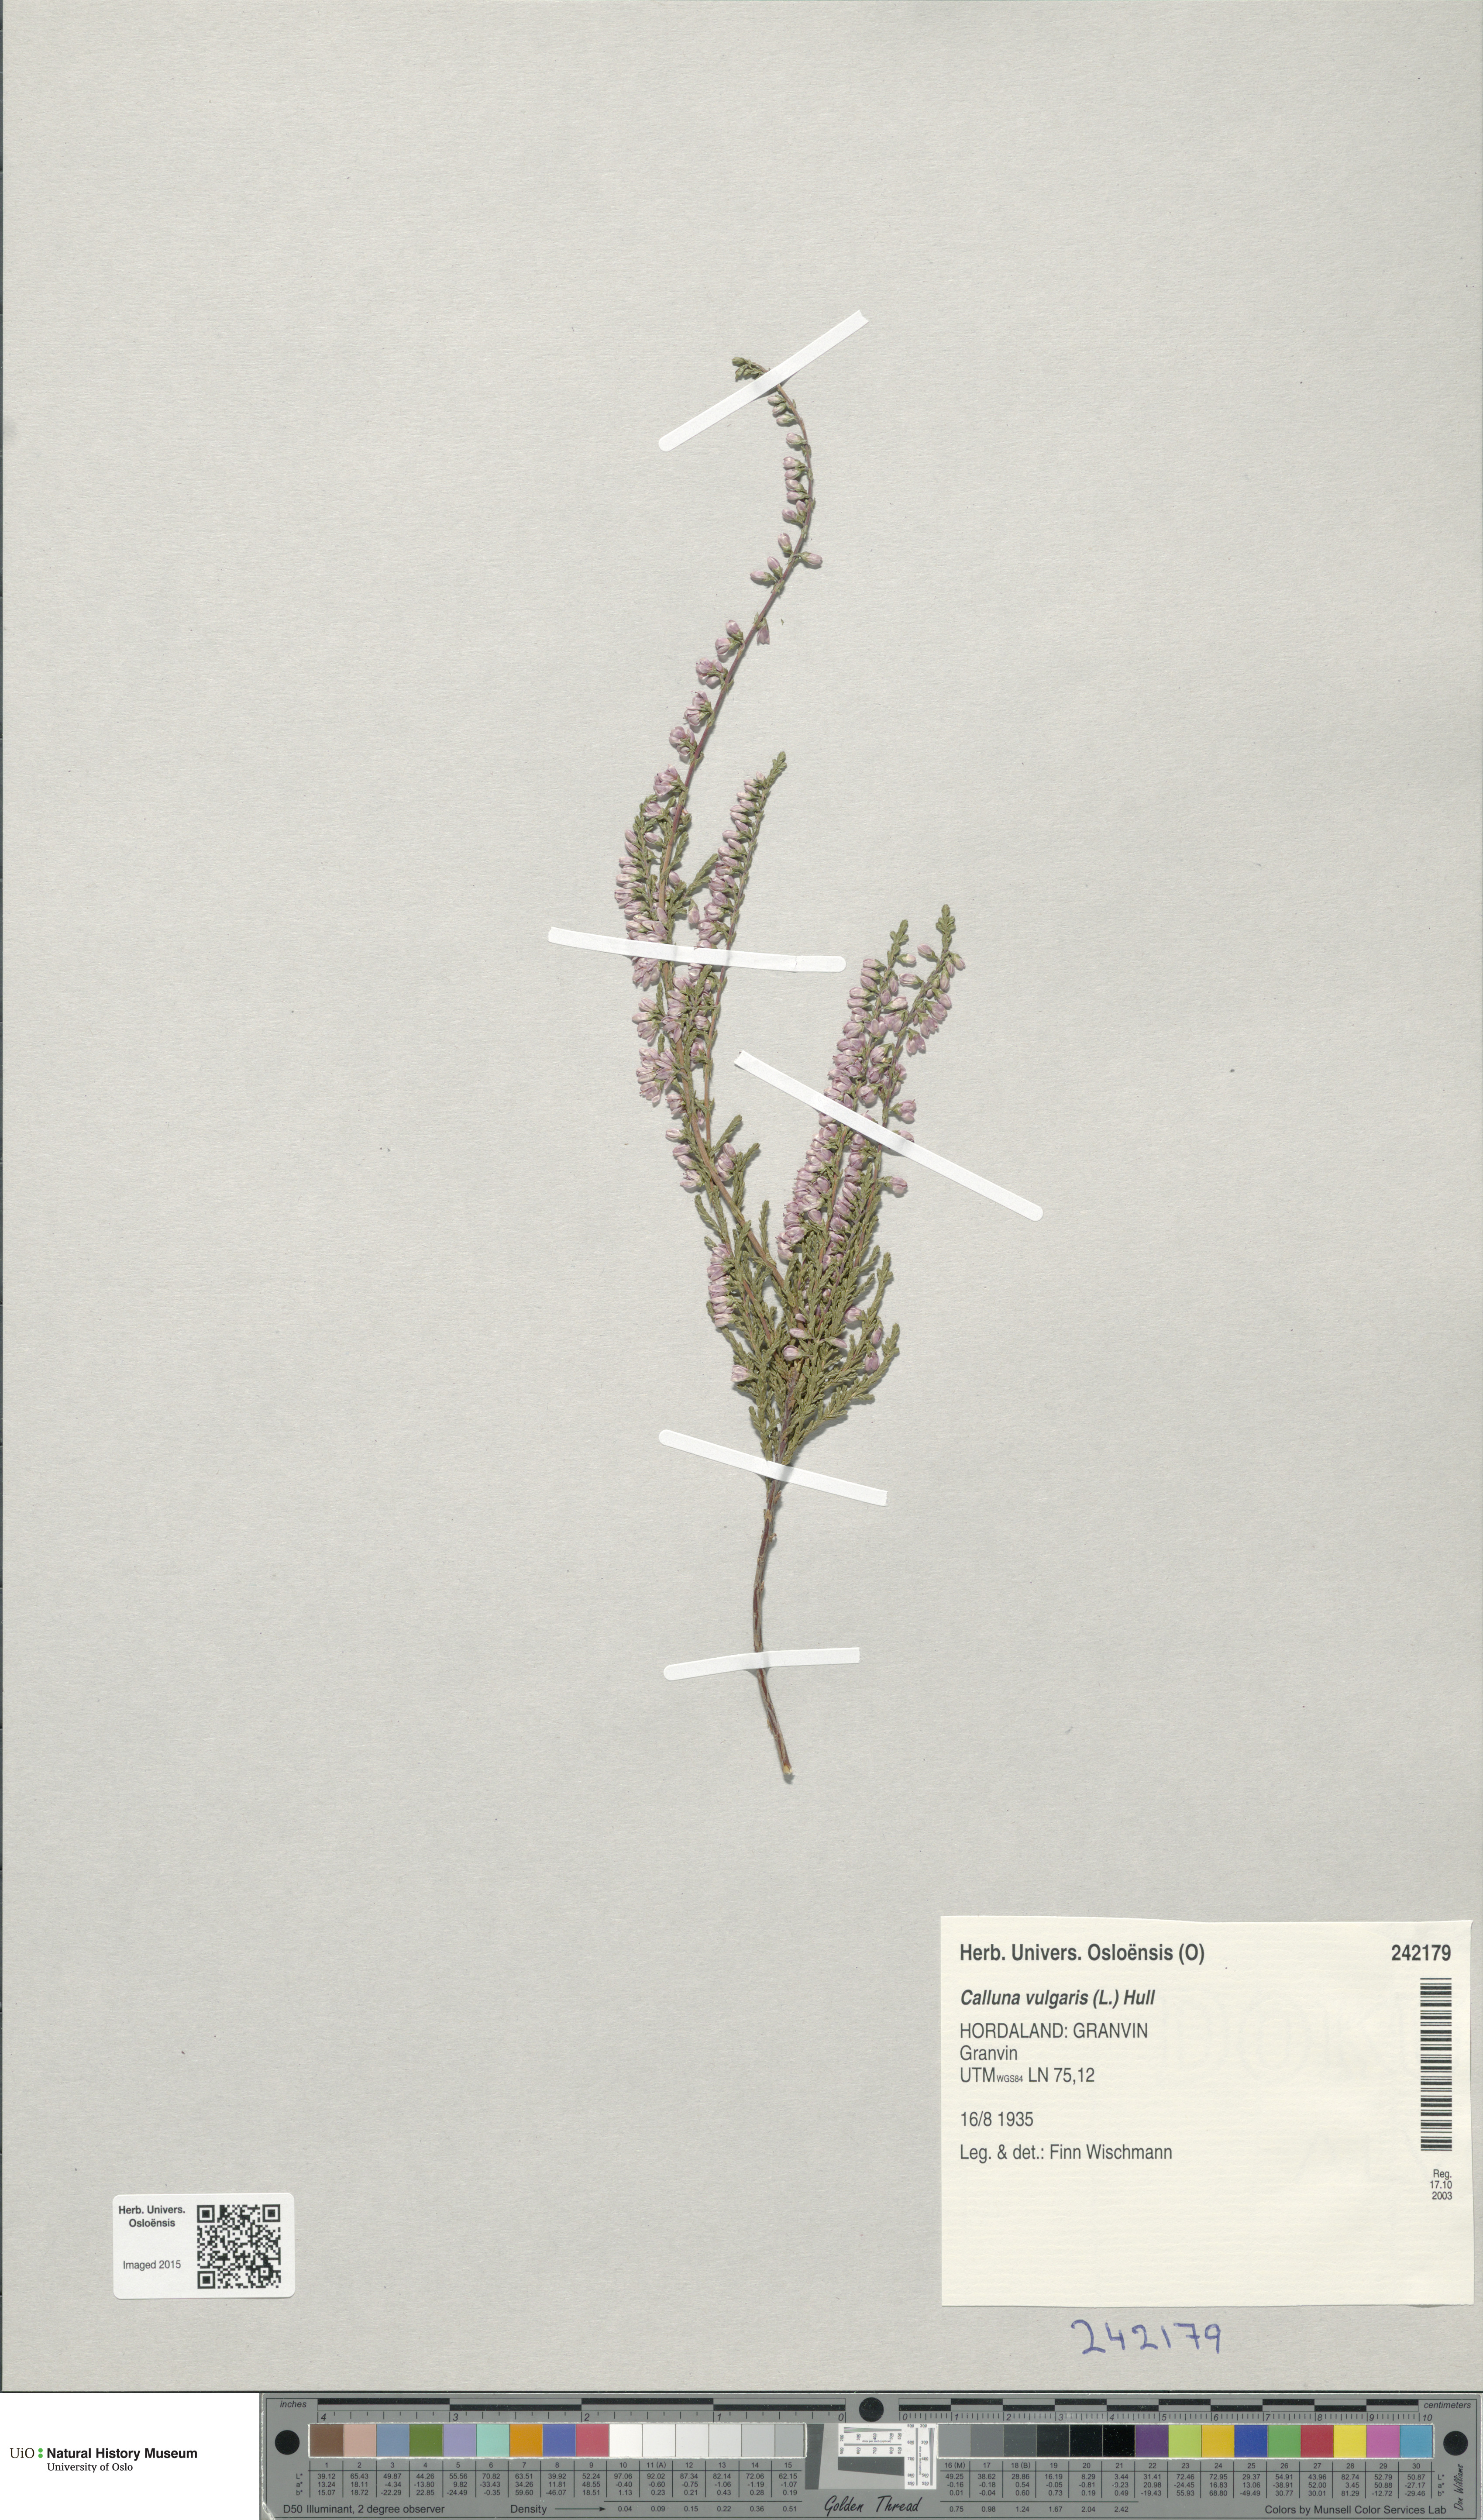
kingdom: Plantae
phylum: Tracheophyta
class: Magnoliopsida
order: Ericales
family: Ericaceae
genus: Calluna
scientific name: Calluna vulgaris
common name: Heather
